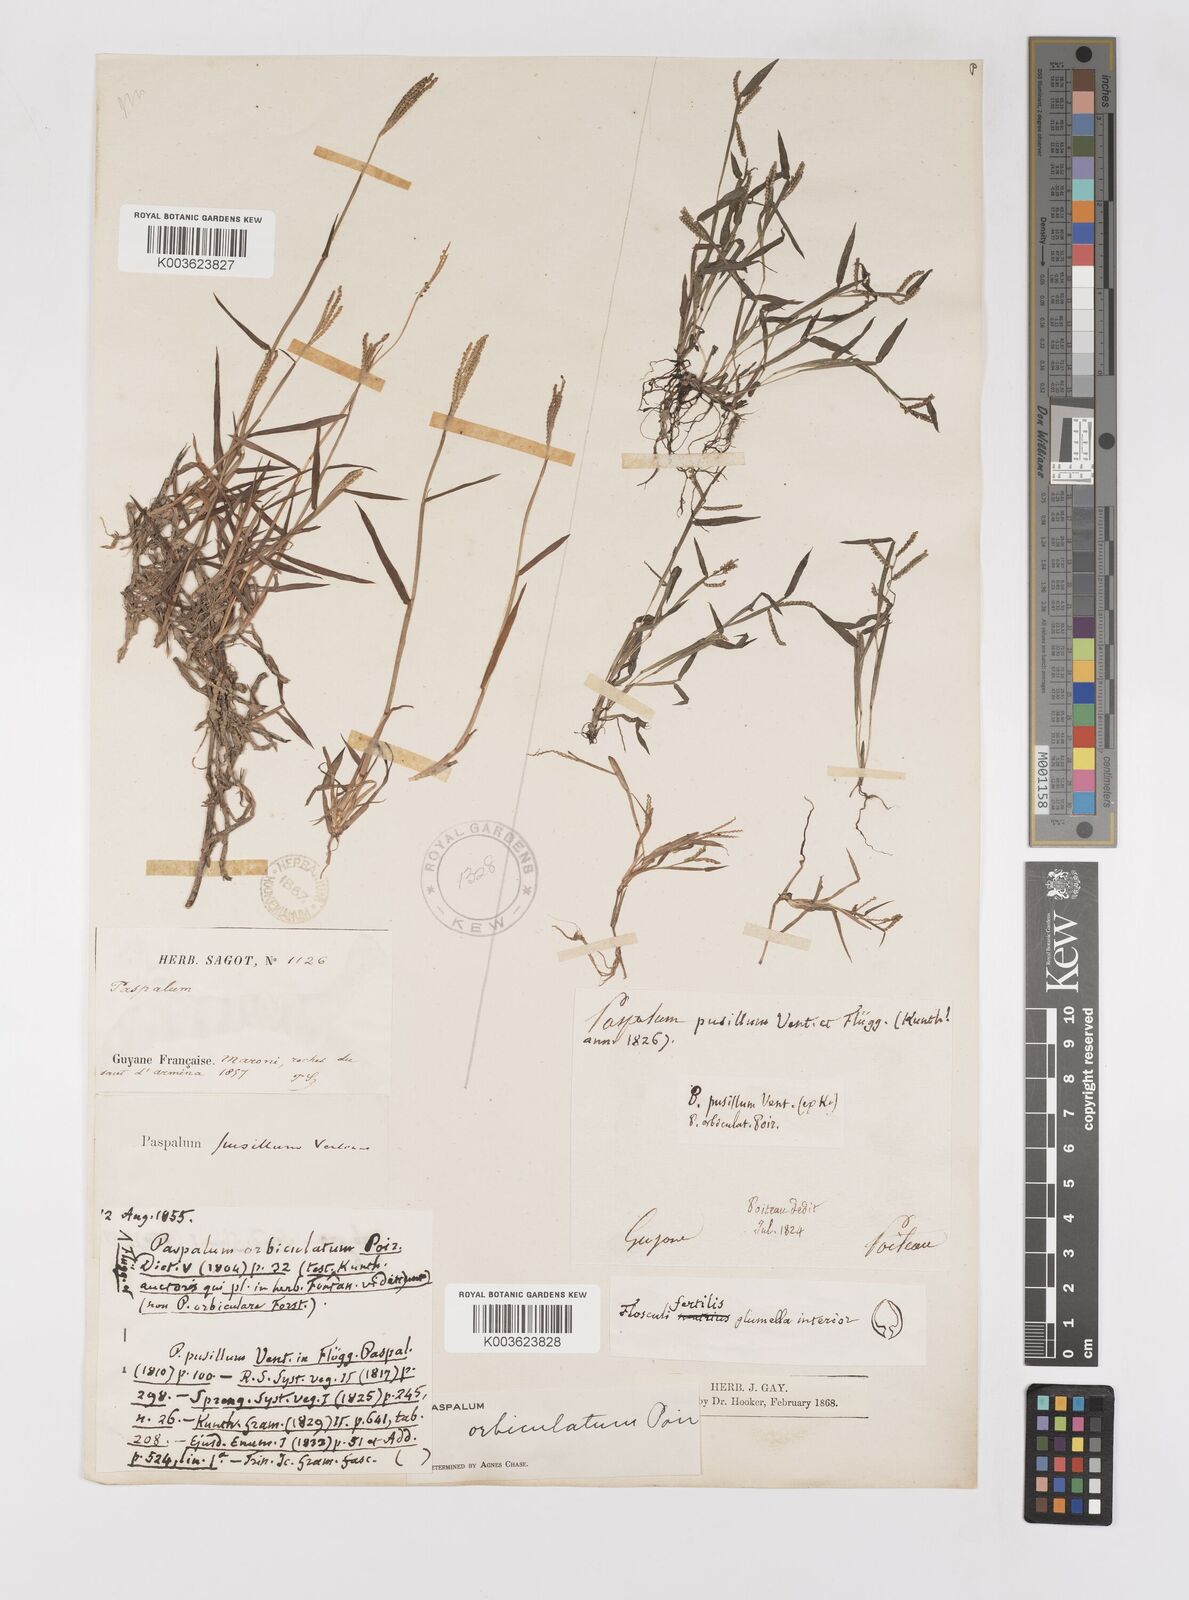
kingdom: Plantae
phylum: Tracheophyta
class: Liliopsida
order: Poales
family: Poaceae
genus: Paspalum
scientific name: Paspalum orbiculatum
